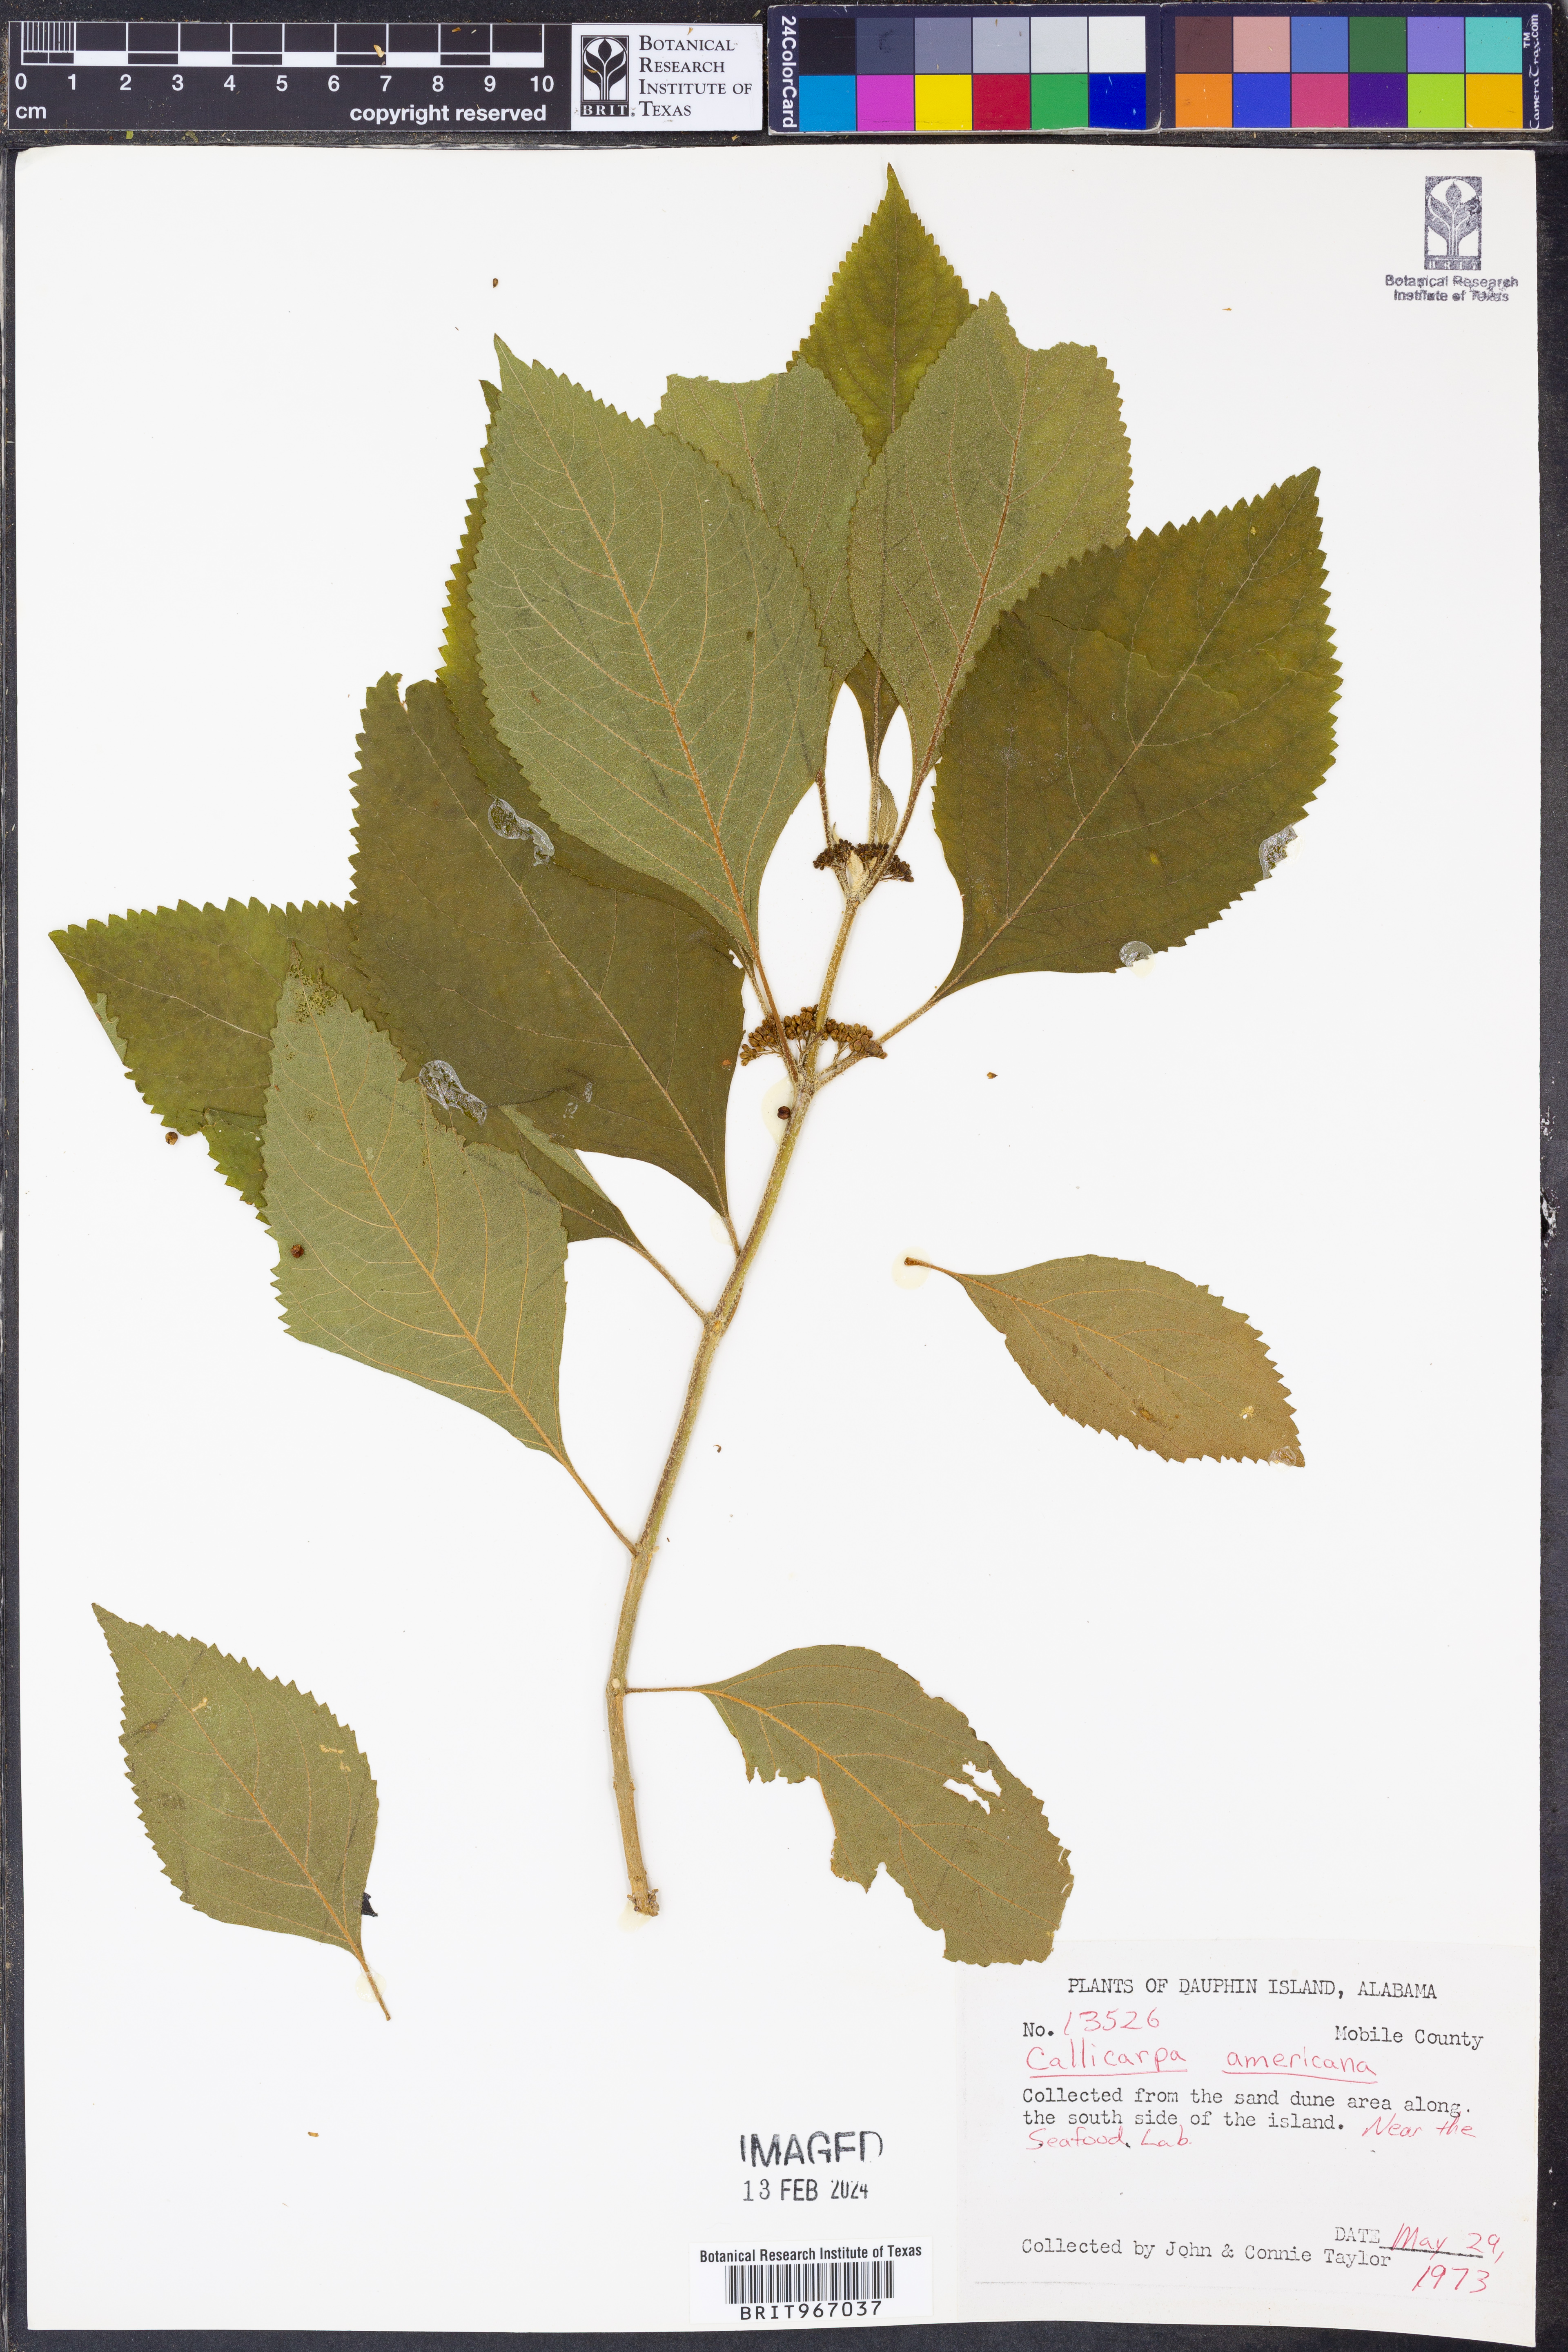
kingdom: Plantae
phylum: Tracheophyta
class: Magnoliopsida
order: Lamiales
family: Lamiaceae
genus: Callicarpa
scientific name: Callicarpa americana
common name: American beautyberry
